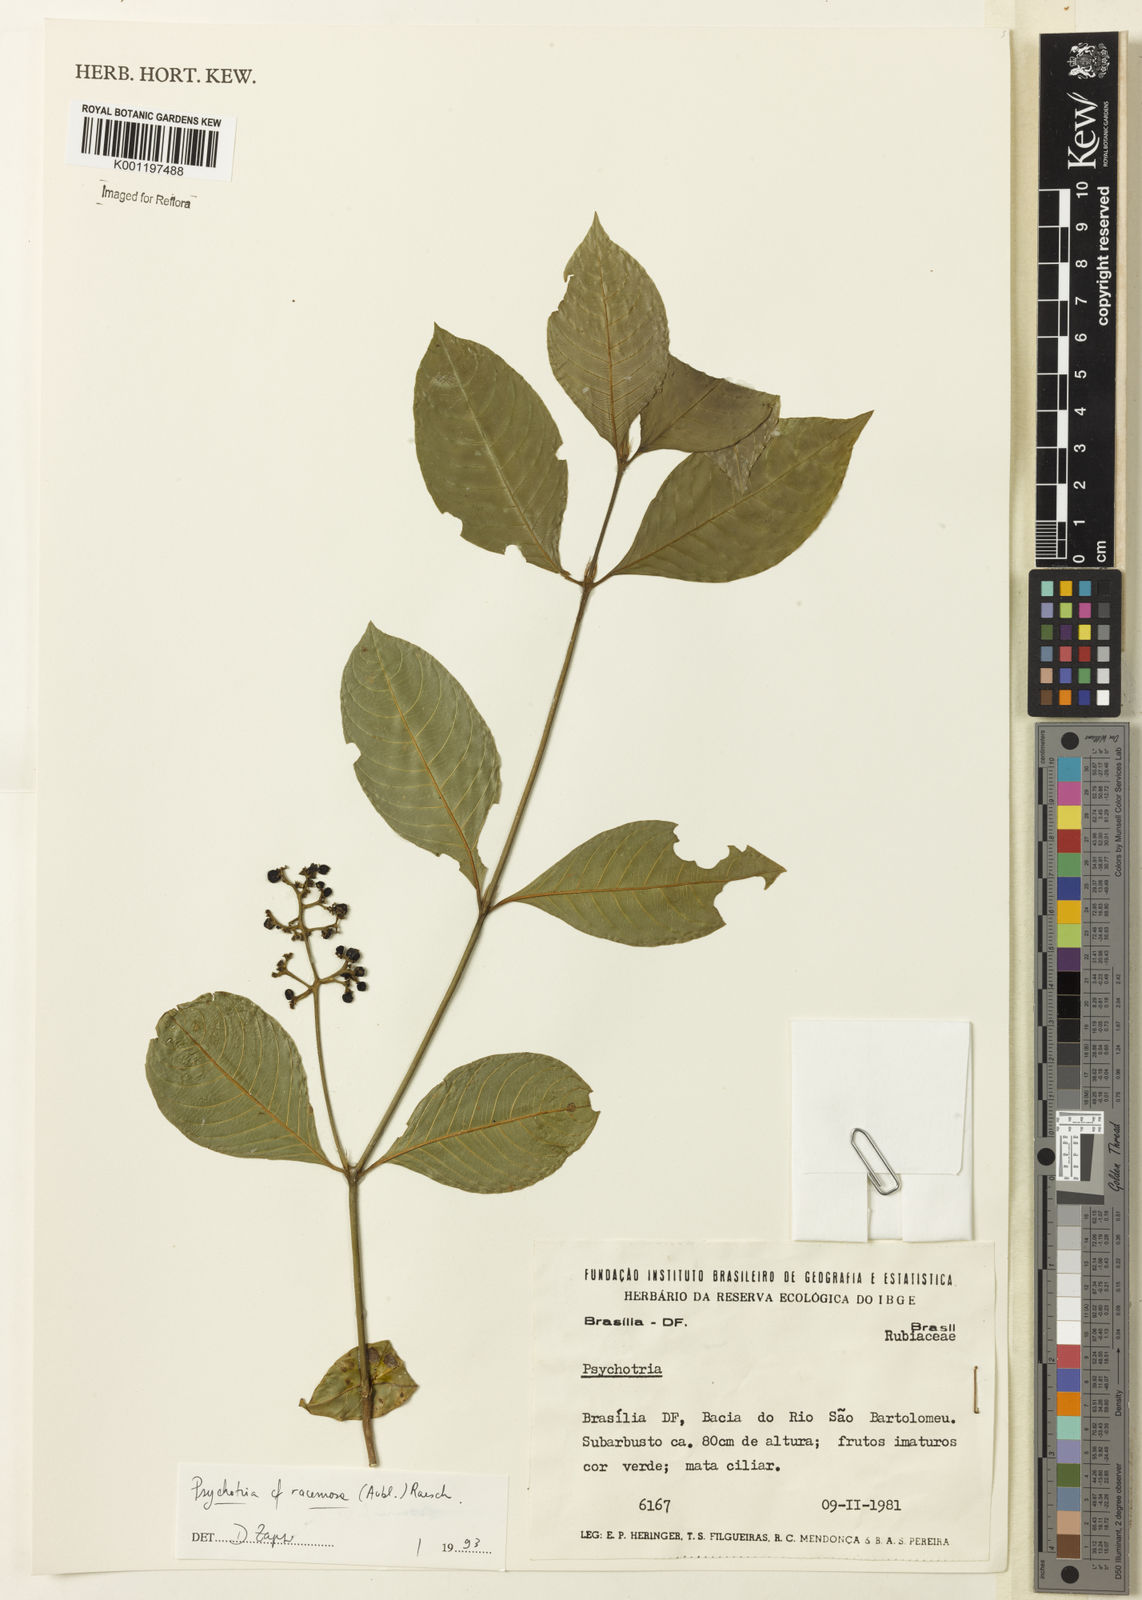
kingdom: Plantae
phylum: Tracheophyta
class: Magnoliopsida
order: Gentianales
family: Rubiaceae
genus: Palicourea
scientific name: Palicourea racemosa
